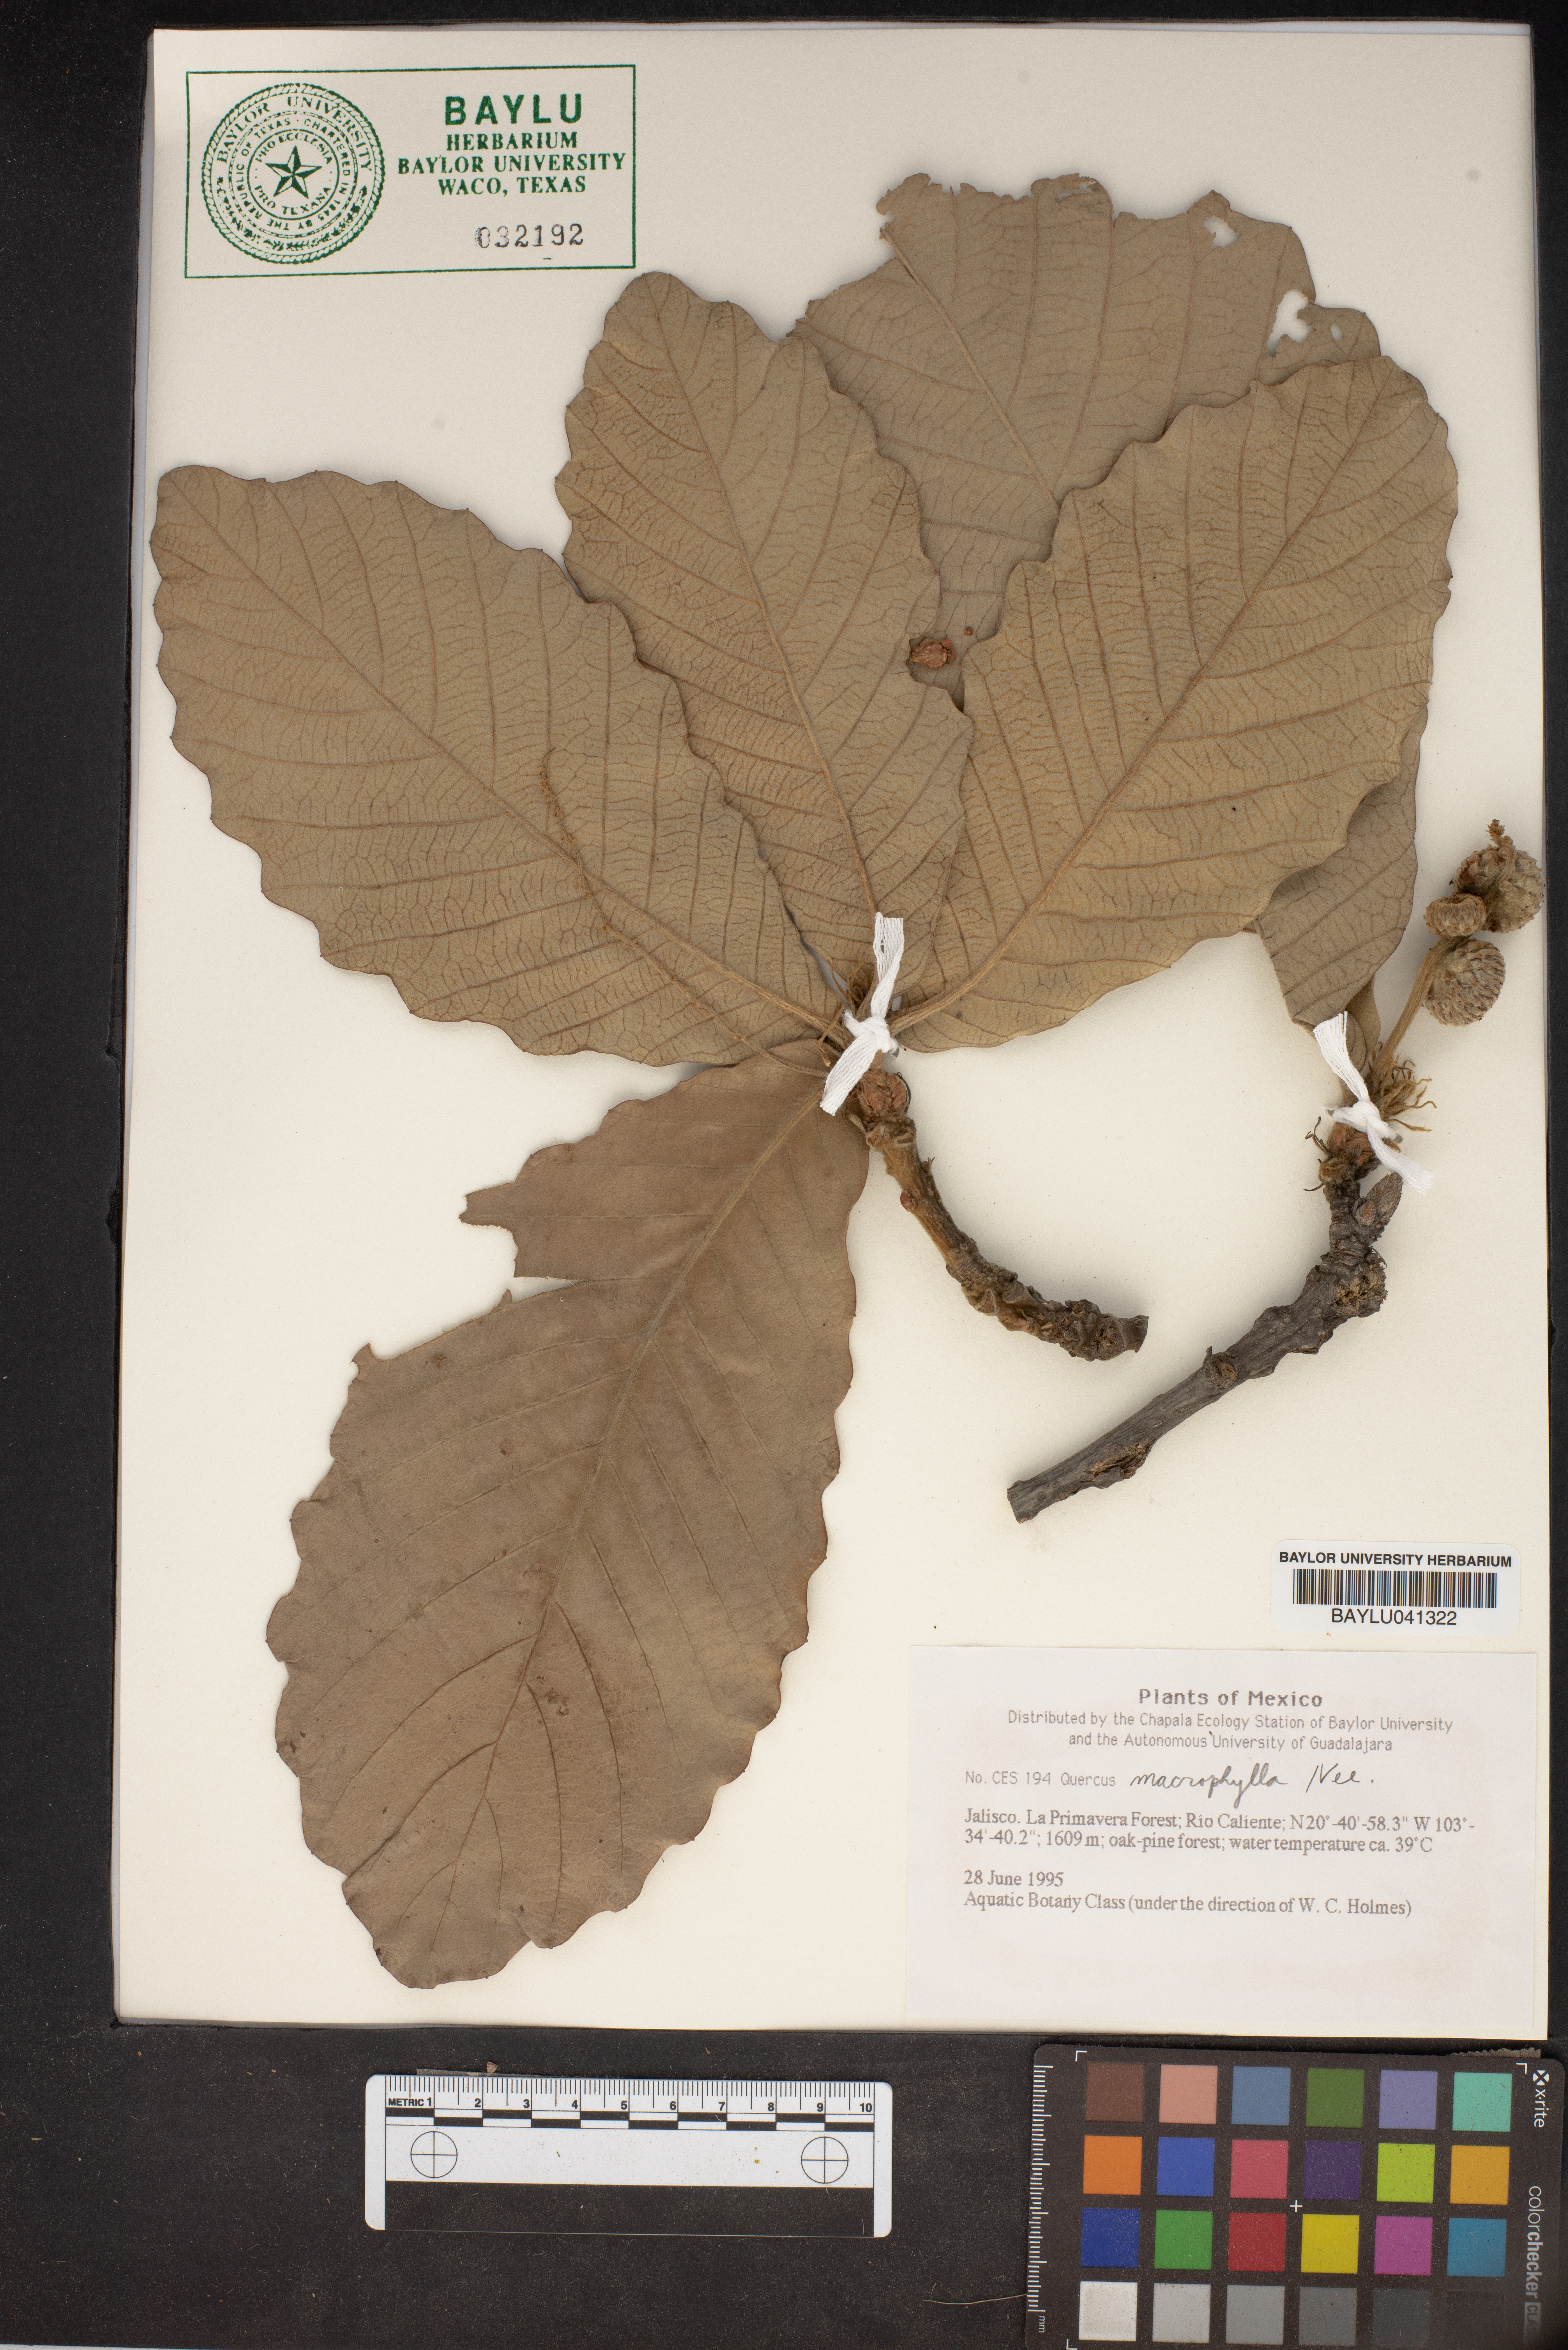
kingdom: Plantae
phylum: Tracheophyta
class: Magnoliopsida
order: Fagales
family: Fagaceae
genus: Quercus
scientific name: Quercus magnoliifolia
